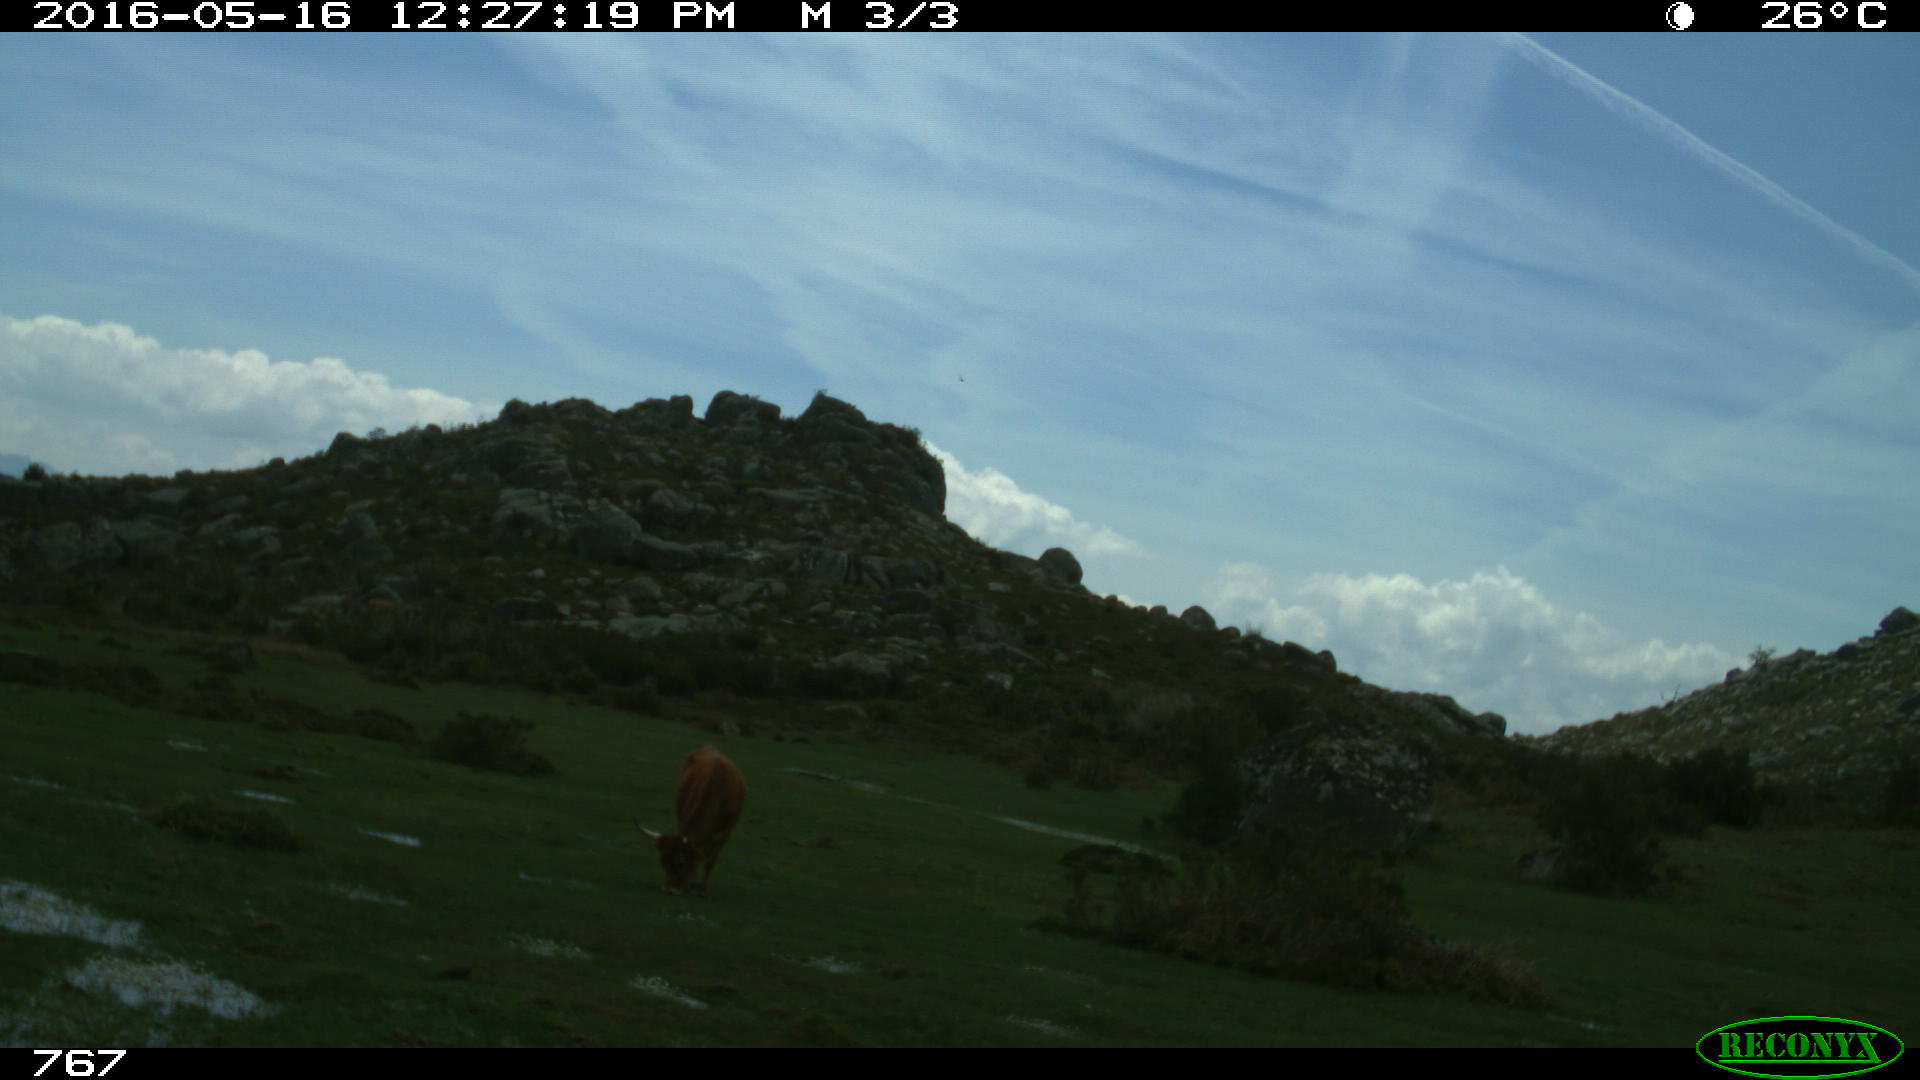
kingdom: Animalia
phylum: Chordata
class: Mammalia
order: Artiodactyla
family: Bovidae
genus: Bos
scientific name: Bos taurus
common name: Domesticated cattle
